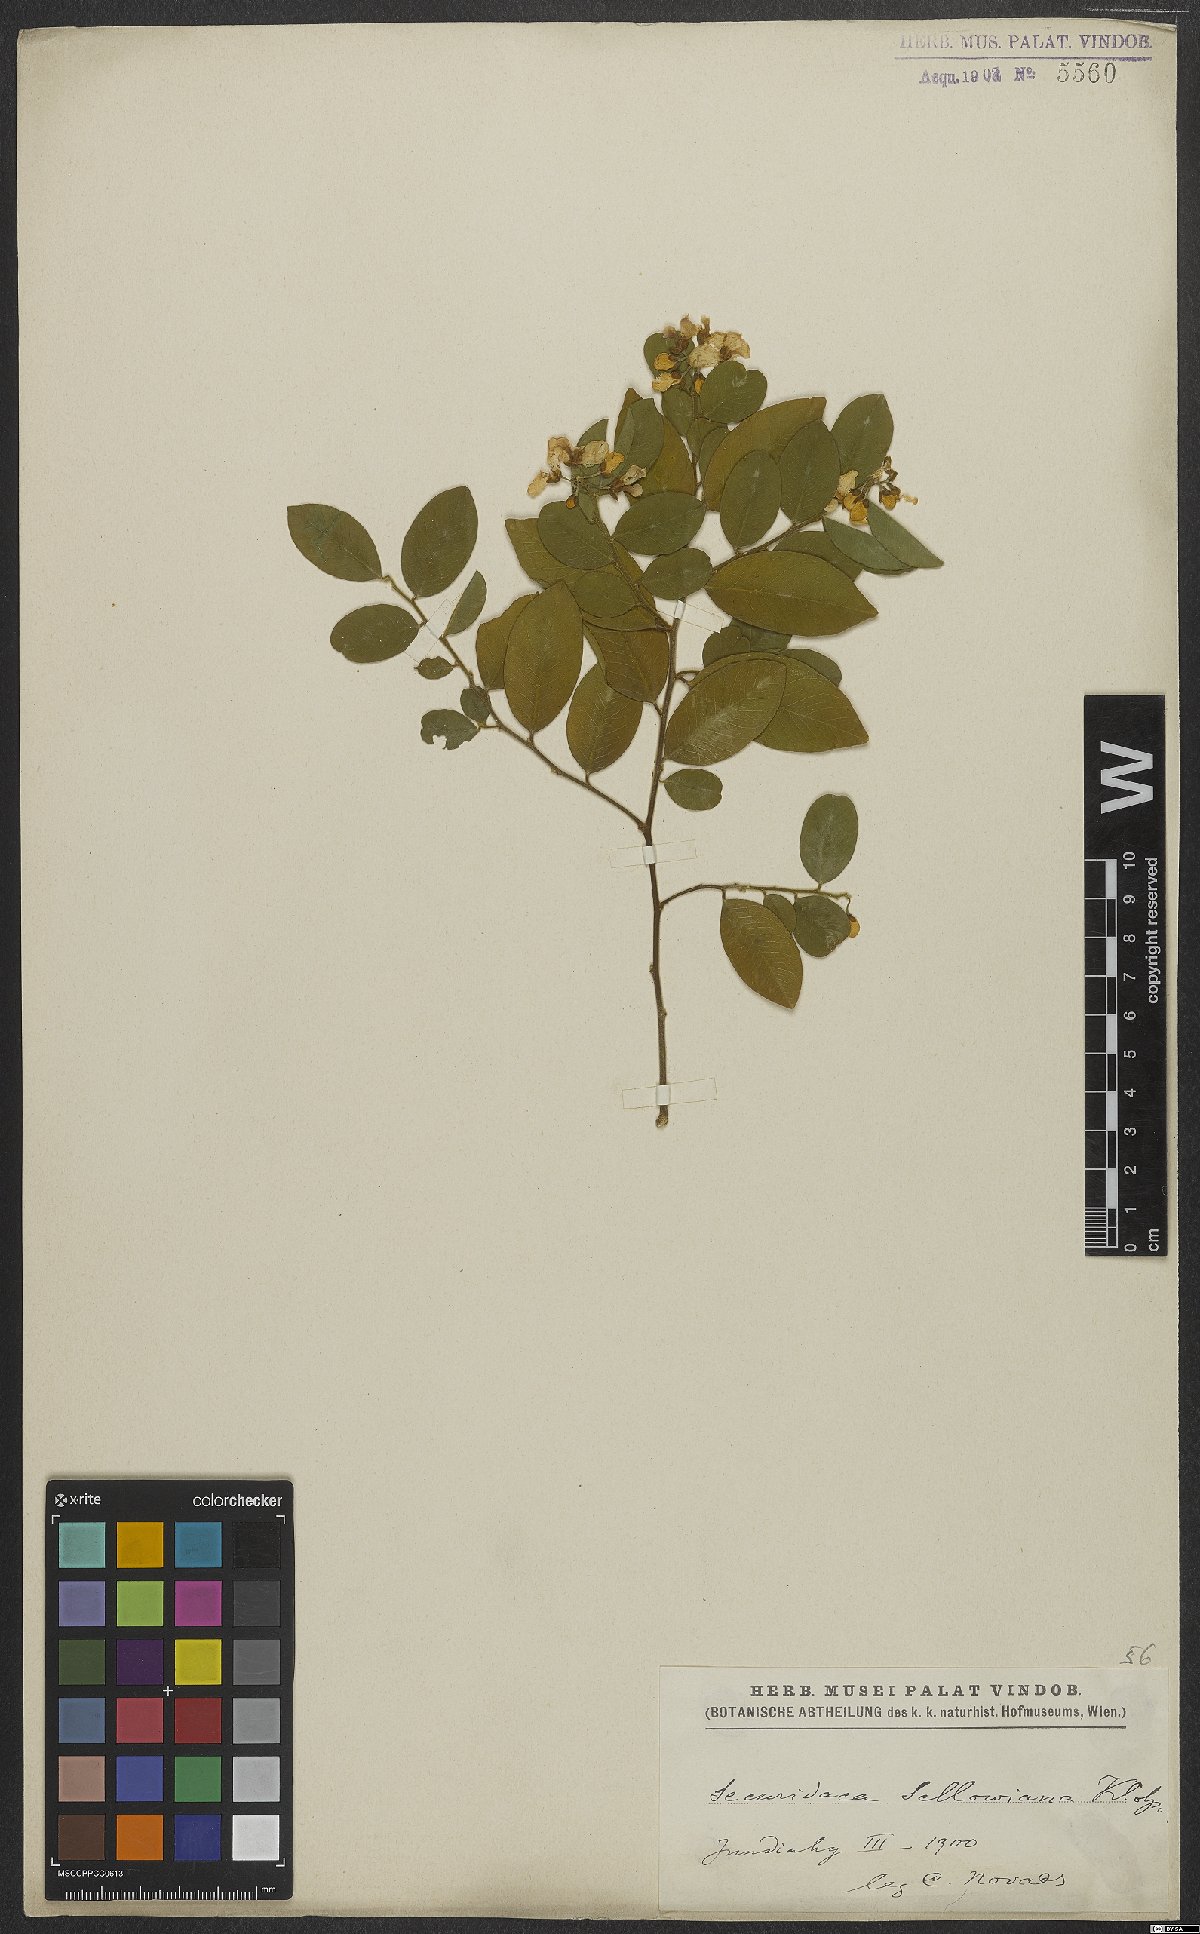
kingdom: Plantae
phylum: Tracheophyta
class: Magnoliopsida
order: Fabales
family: Polygalaceae
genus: Securidaca
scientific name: Securidaca lanceolata
